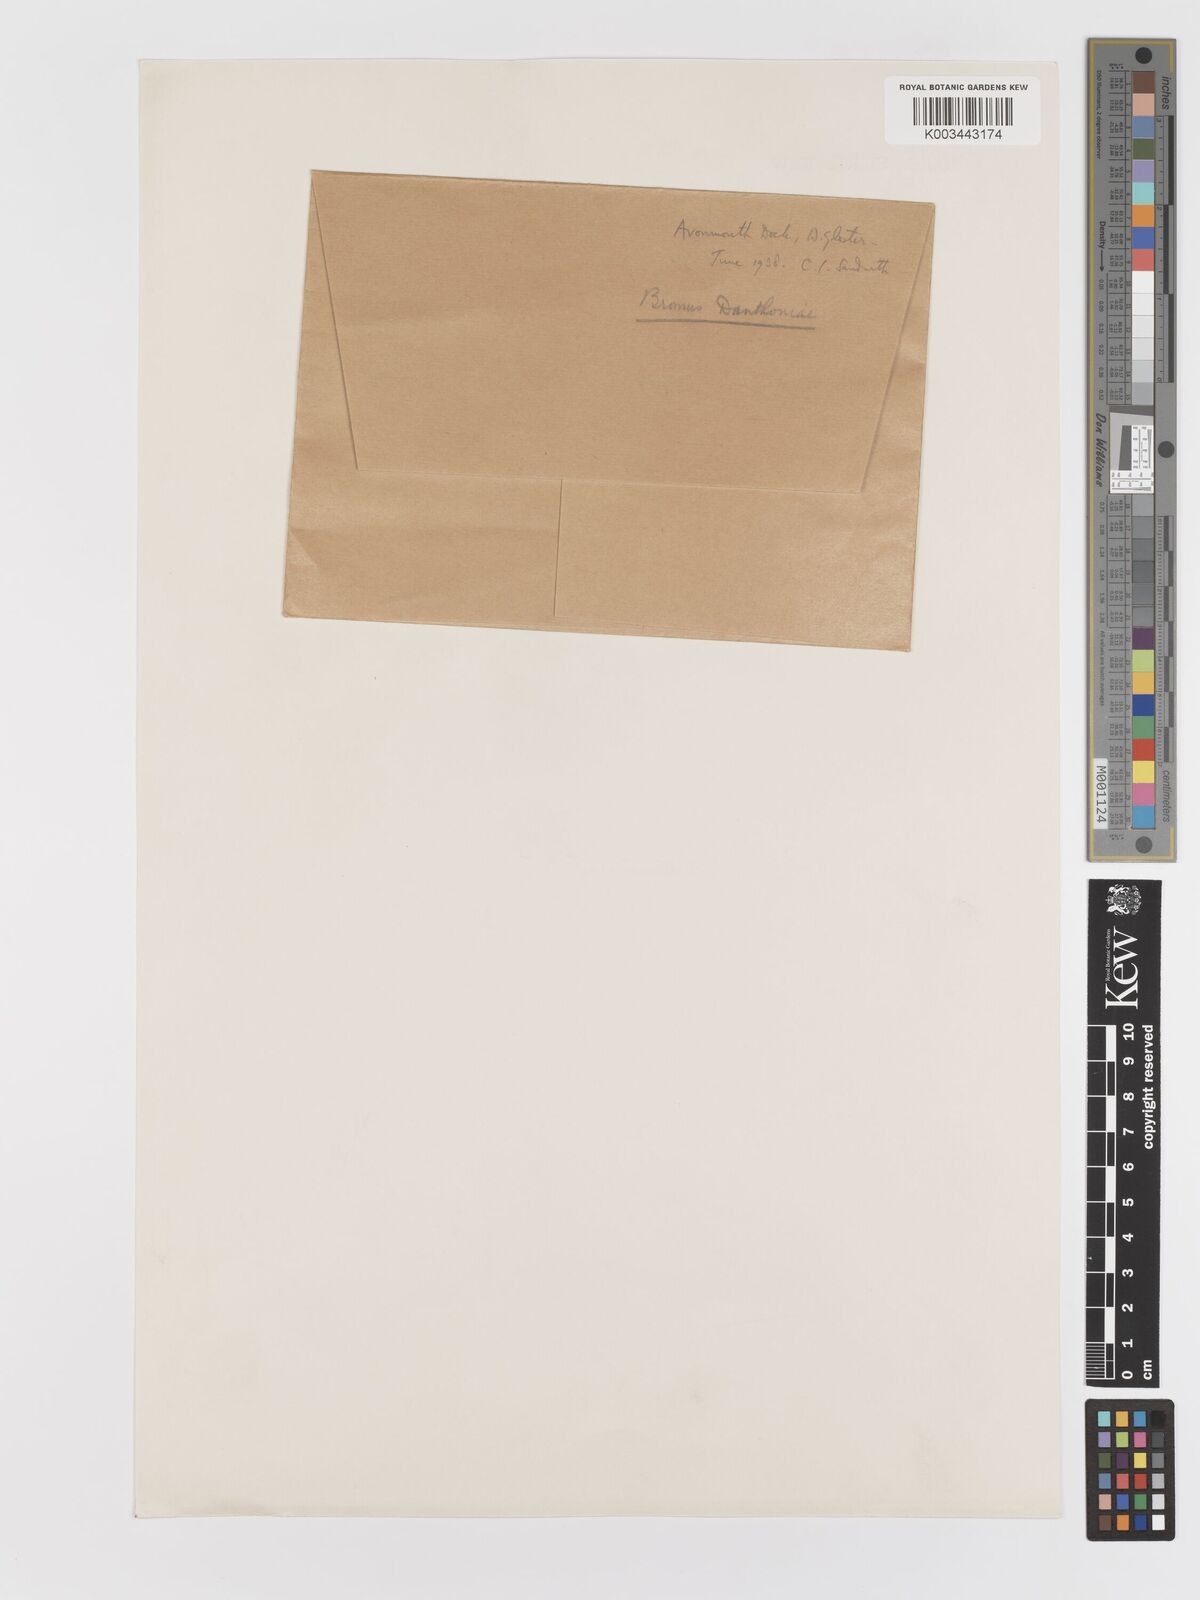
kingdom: Plantae
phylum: Tracheophyta
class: Liliopsida
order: Poales
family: Poaceae
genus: Bromus
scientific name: Bromus danthoniae
